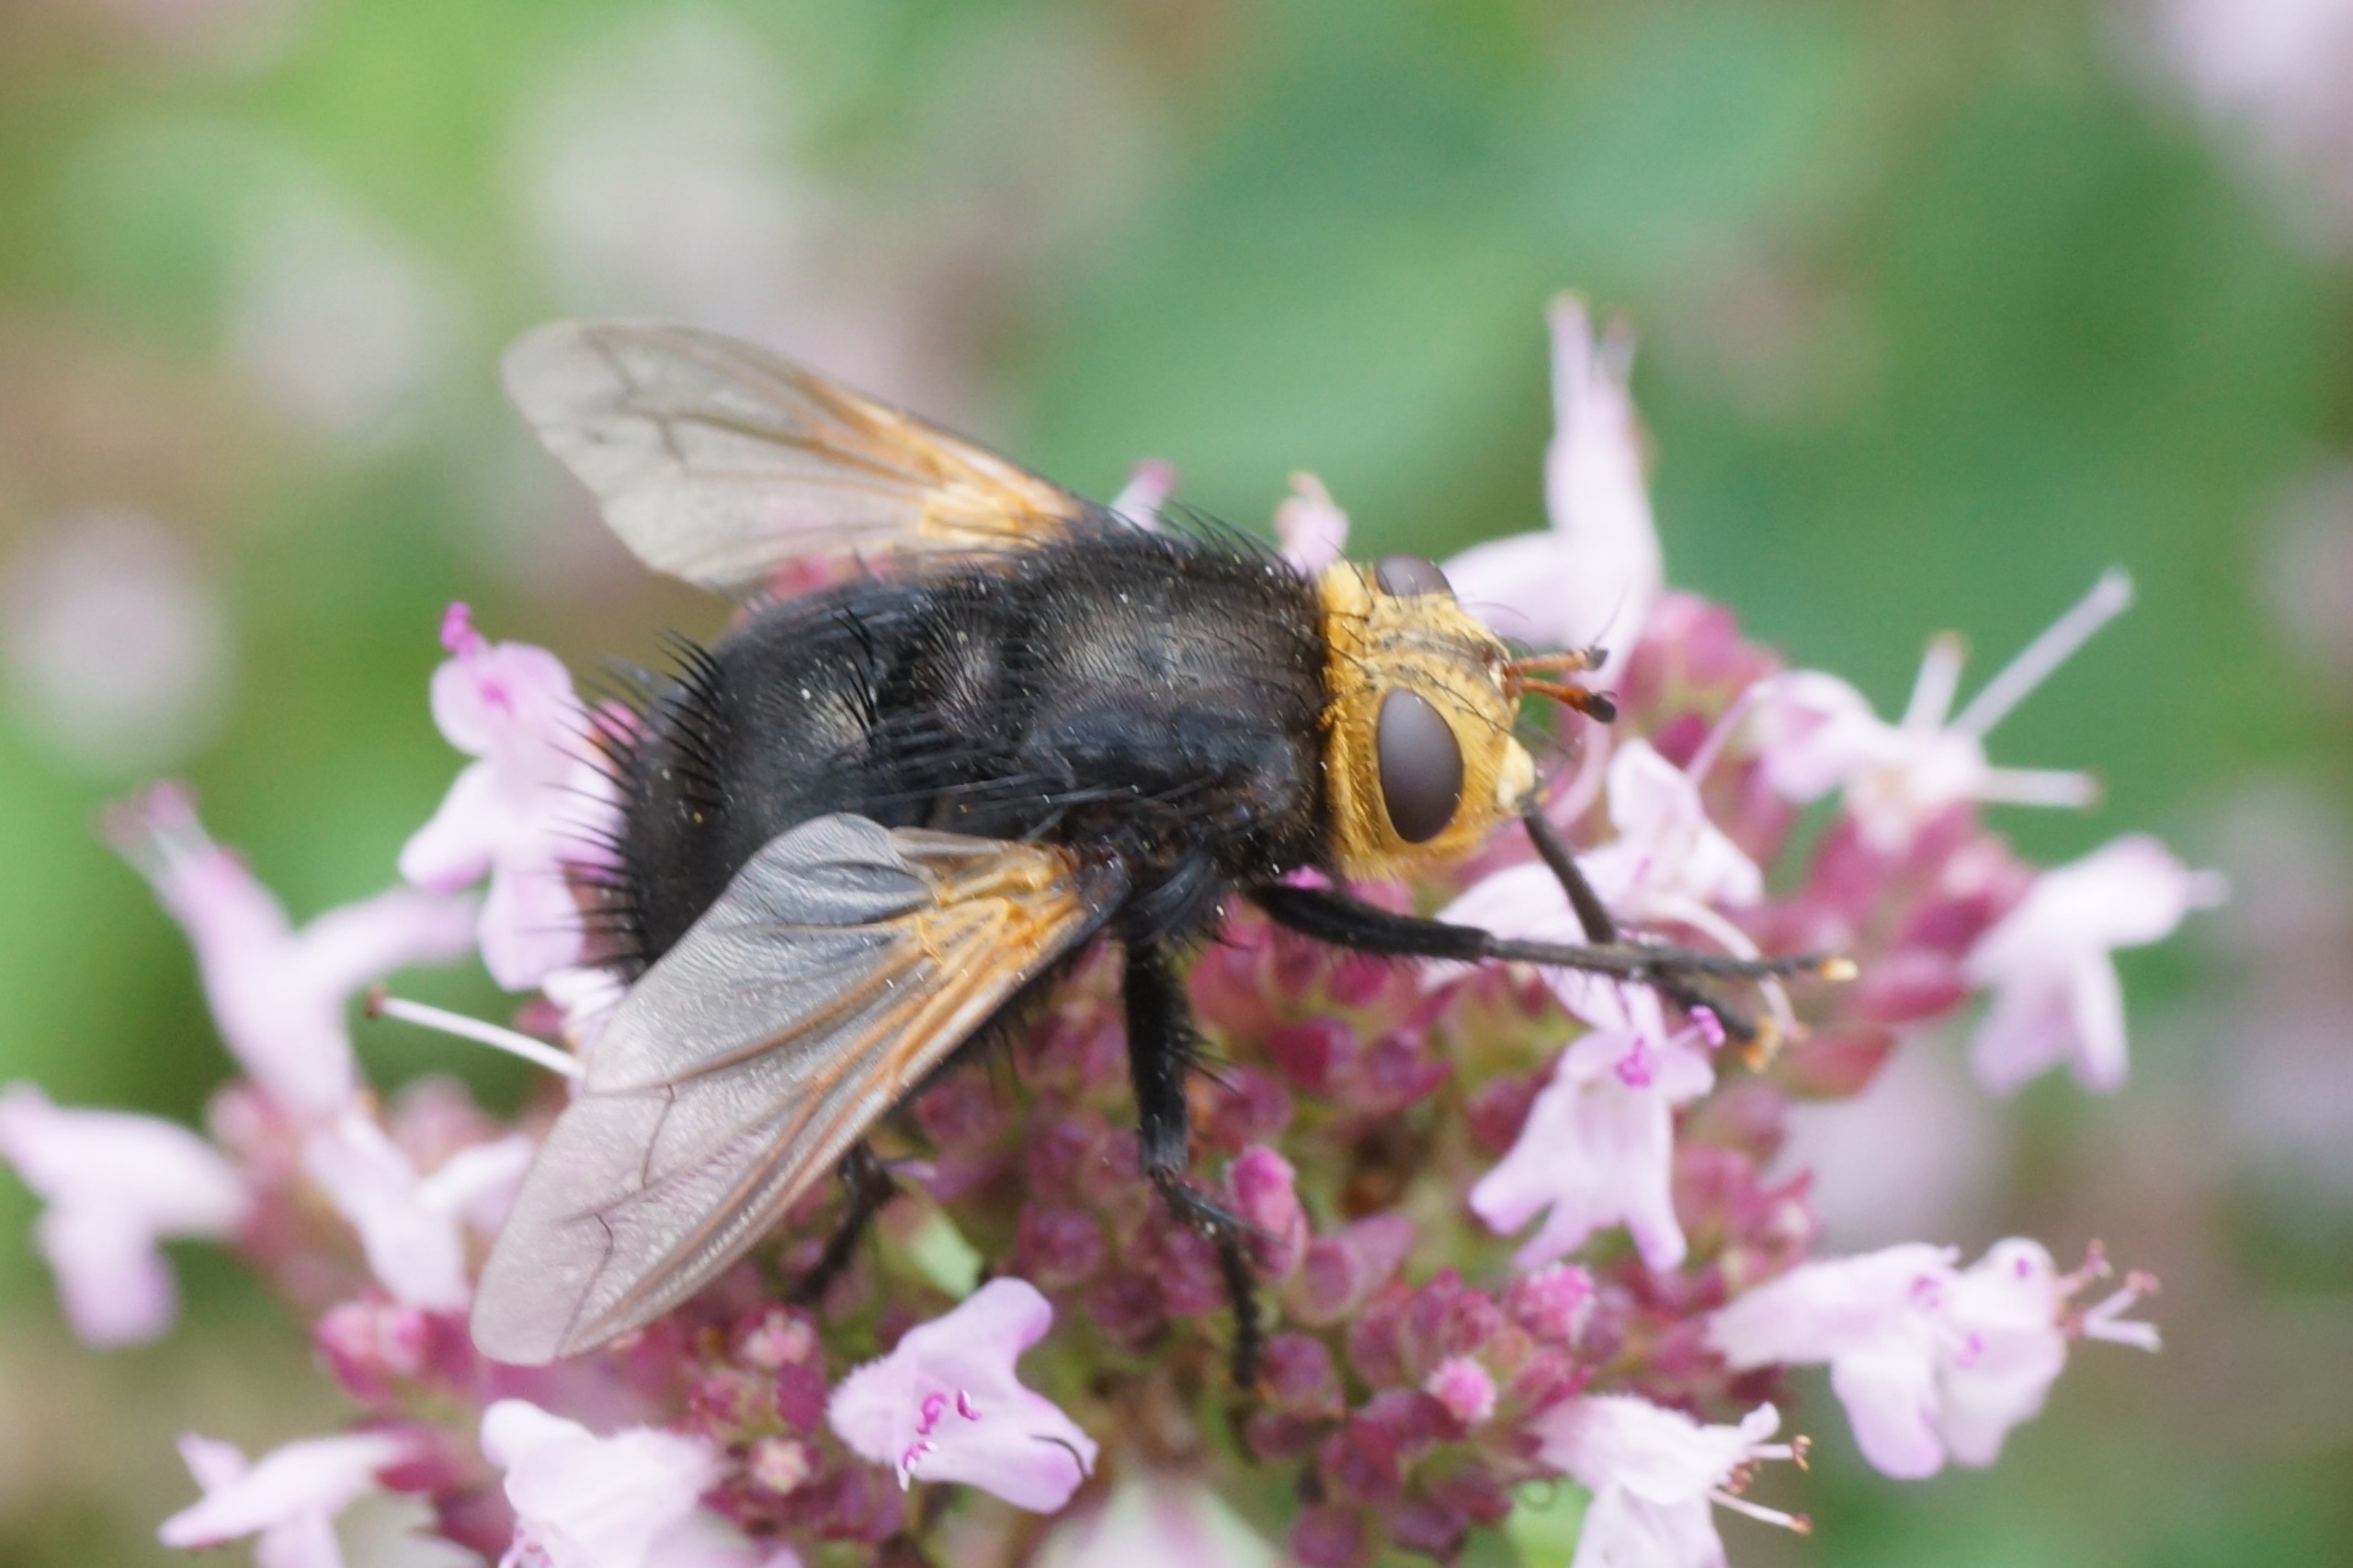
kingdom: Animalia
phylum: Arthropoda
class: Insecta
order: Diptera
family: Tachinidae
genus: Tachina
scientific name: Tachina grossa
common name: Kæmpefluen Harald
